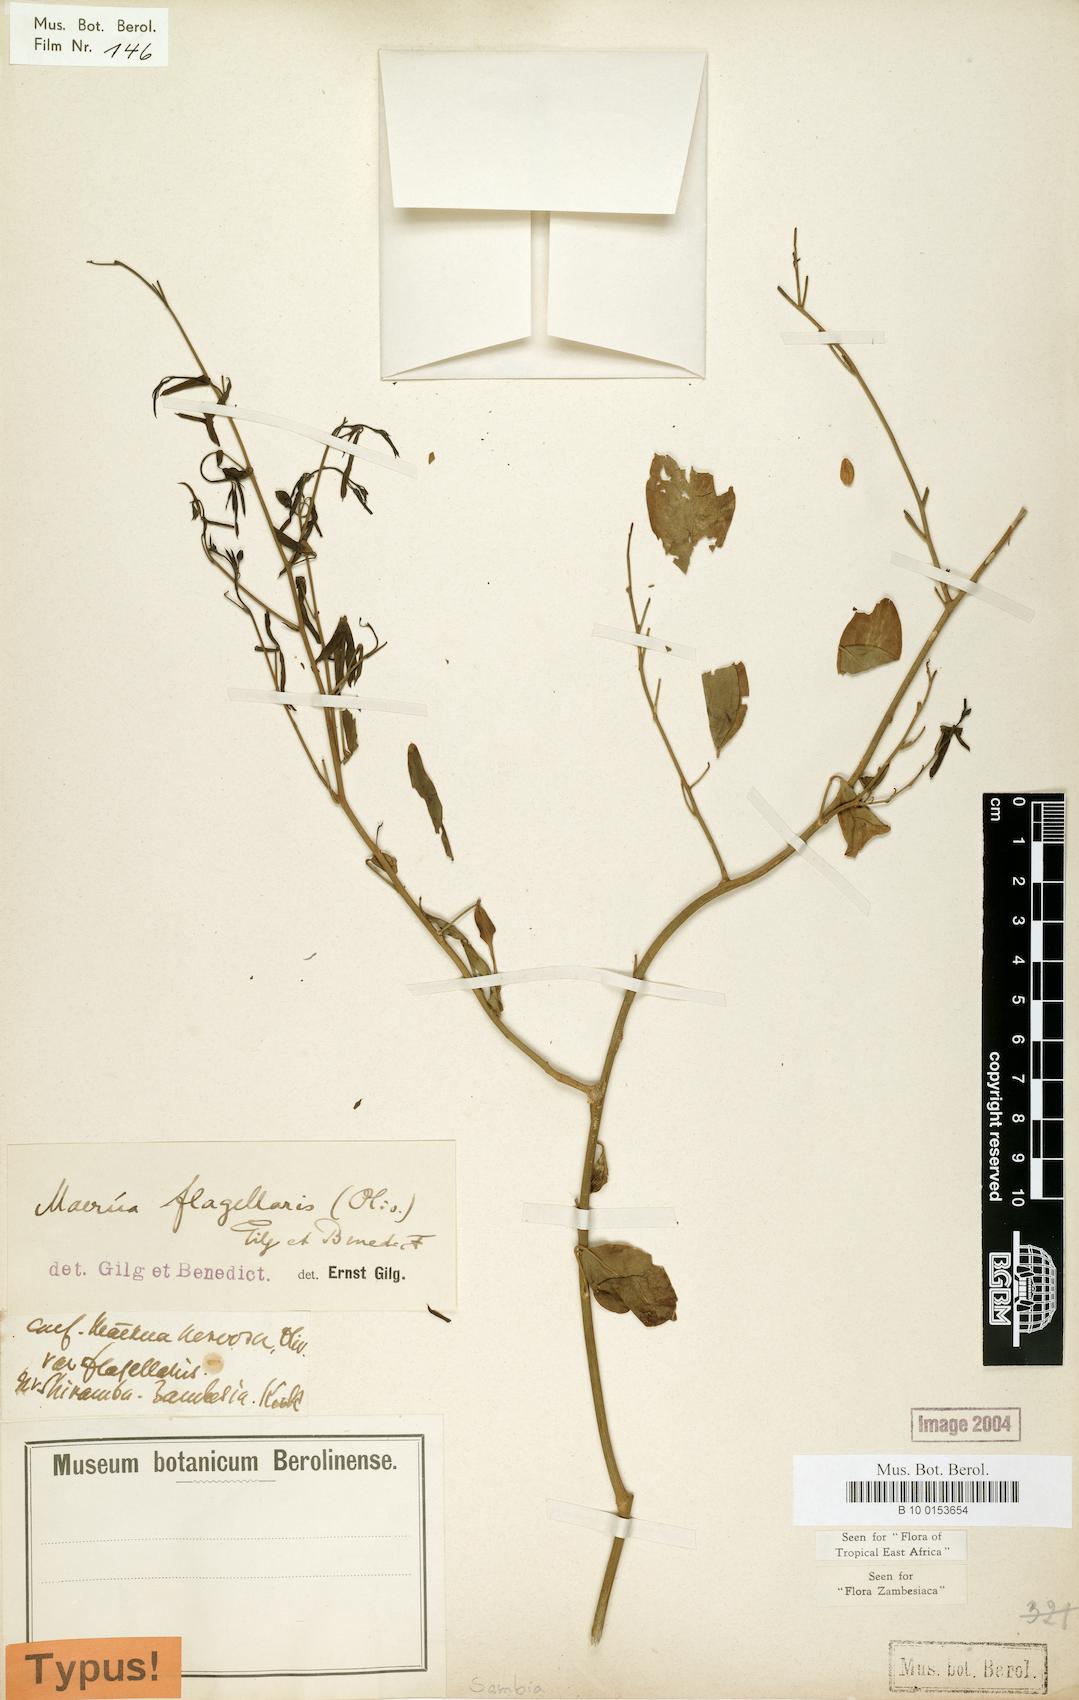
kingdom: Plantae
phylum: Tracheophyta
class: Magnoliopsida
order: Brassicales
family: Capparaceae
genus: Maerua
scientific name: Maerua juncea
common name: Rough-skinned bush cherry
